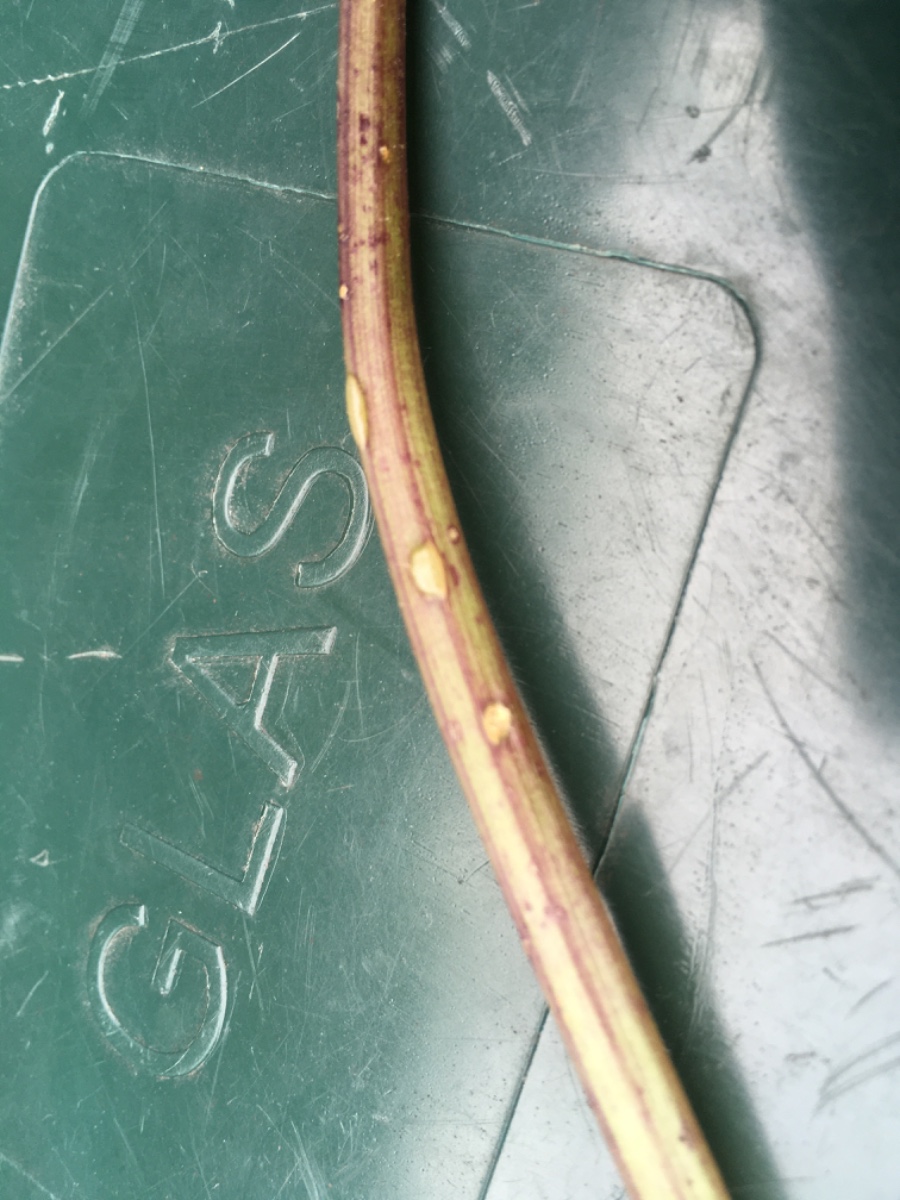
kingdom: Fungi
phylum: Ascomycota
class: Taphrinomycetes
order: Taphrinales
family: Taphrinaceae
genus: Protomyces
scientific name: Protomyces macrosporus
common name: skvalderkål-vablesæk
